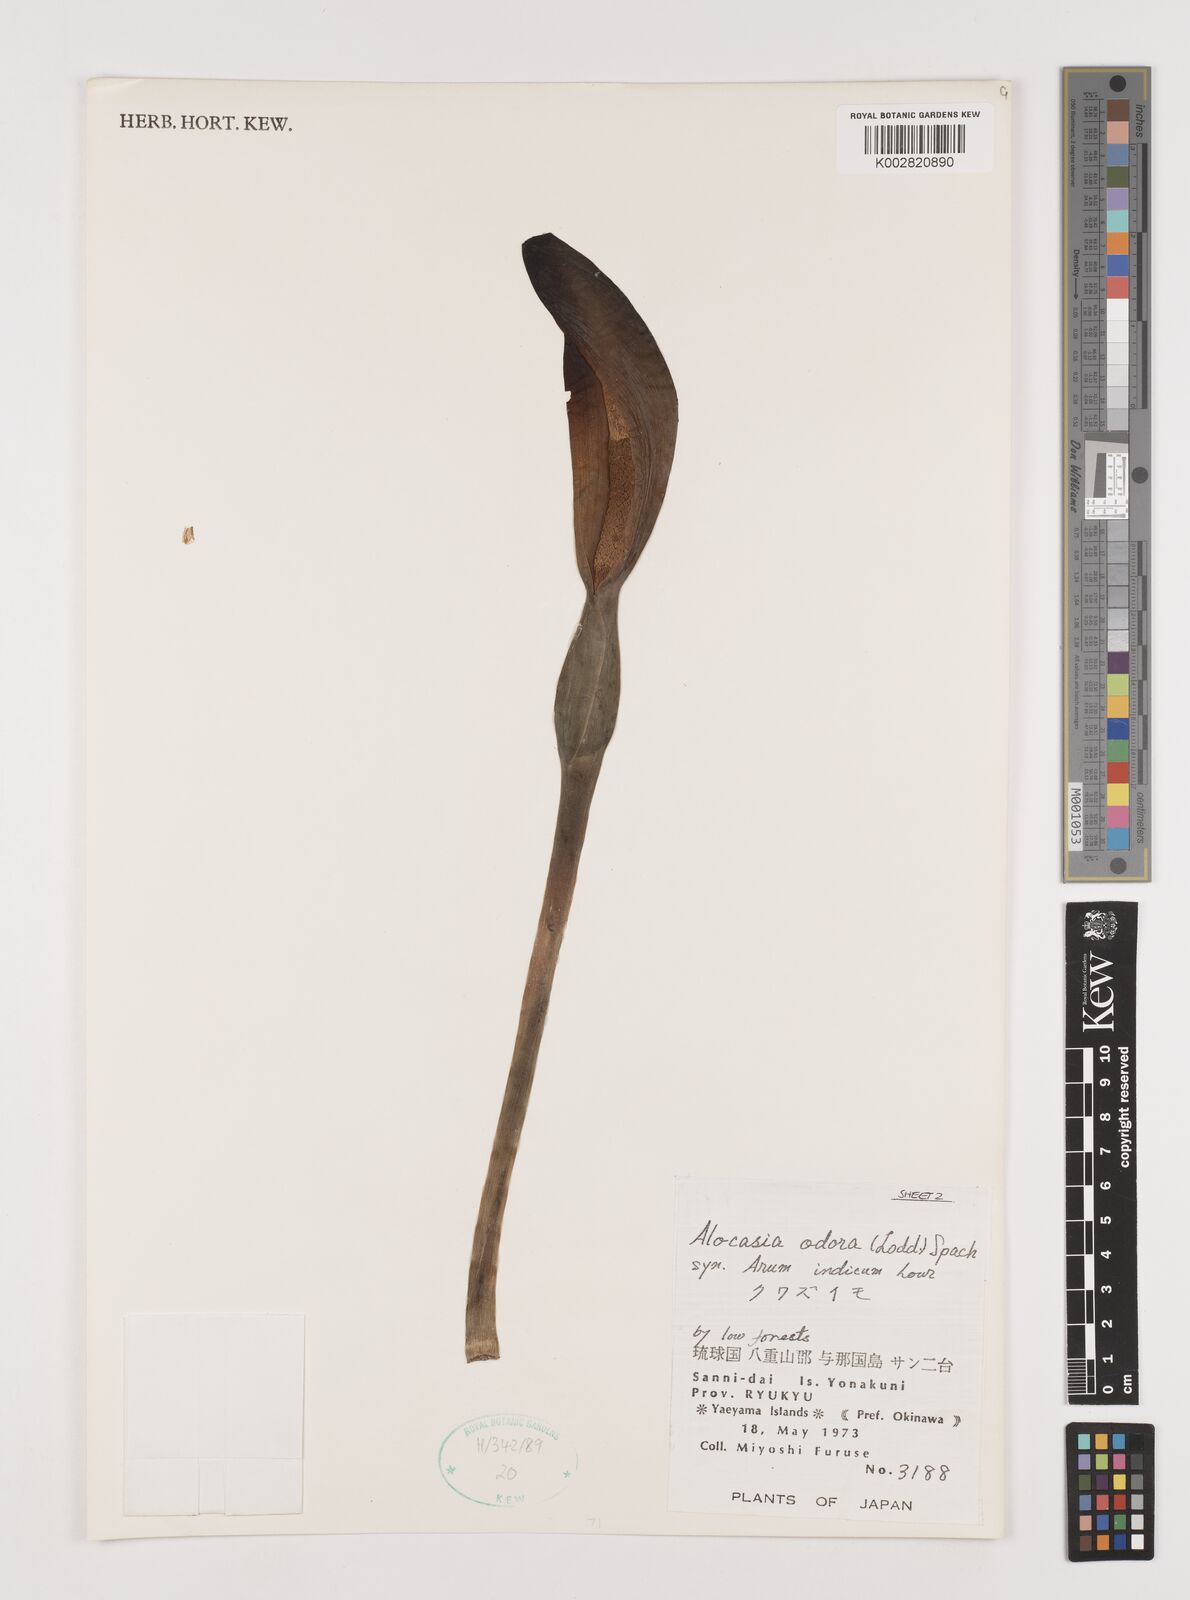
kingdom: Plantae
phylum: Tracheophyta
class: Liliopsida
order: Alismatales
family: Araceae
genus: Alocasia
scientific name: Alocasia
